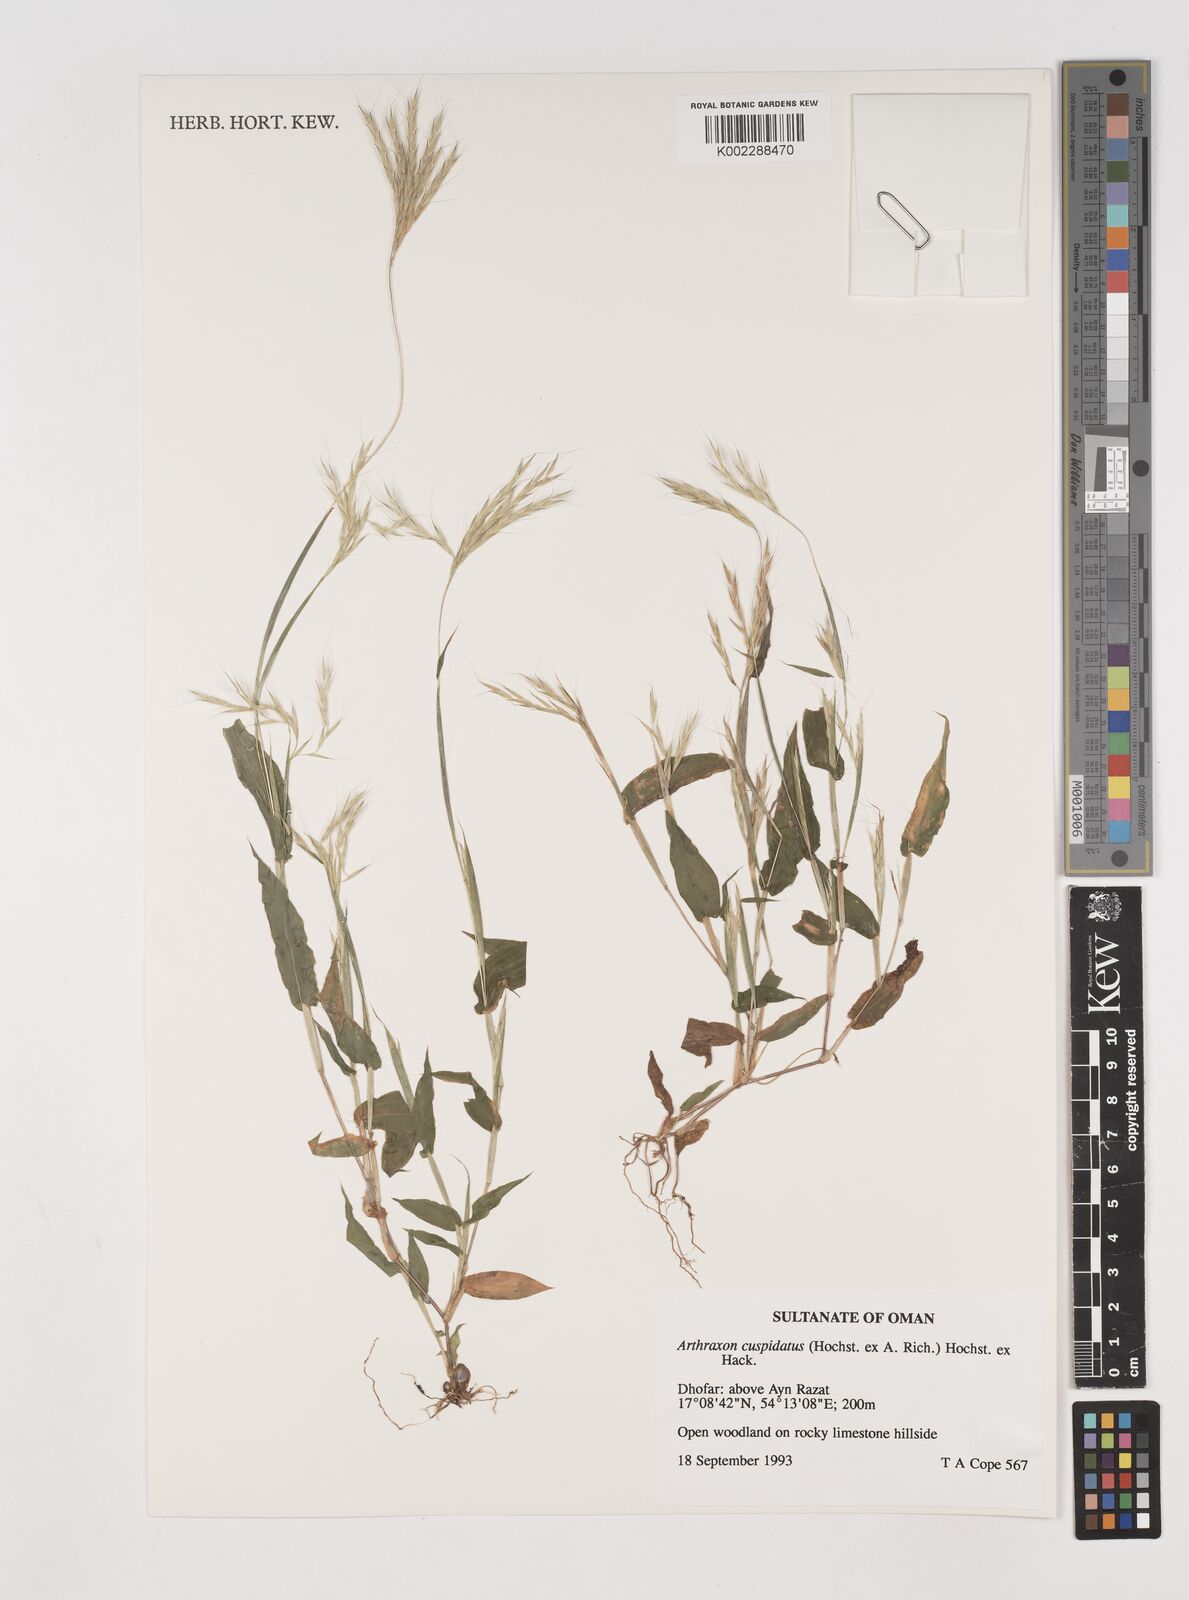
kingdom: Plantae
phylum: Tracheophyta
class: Liliopsida
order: Poales
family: Poaceae
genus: Arthraxon
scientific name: Arthraxon cuspidatus
